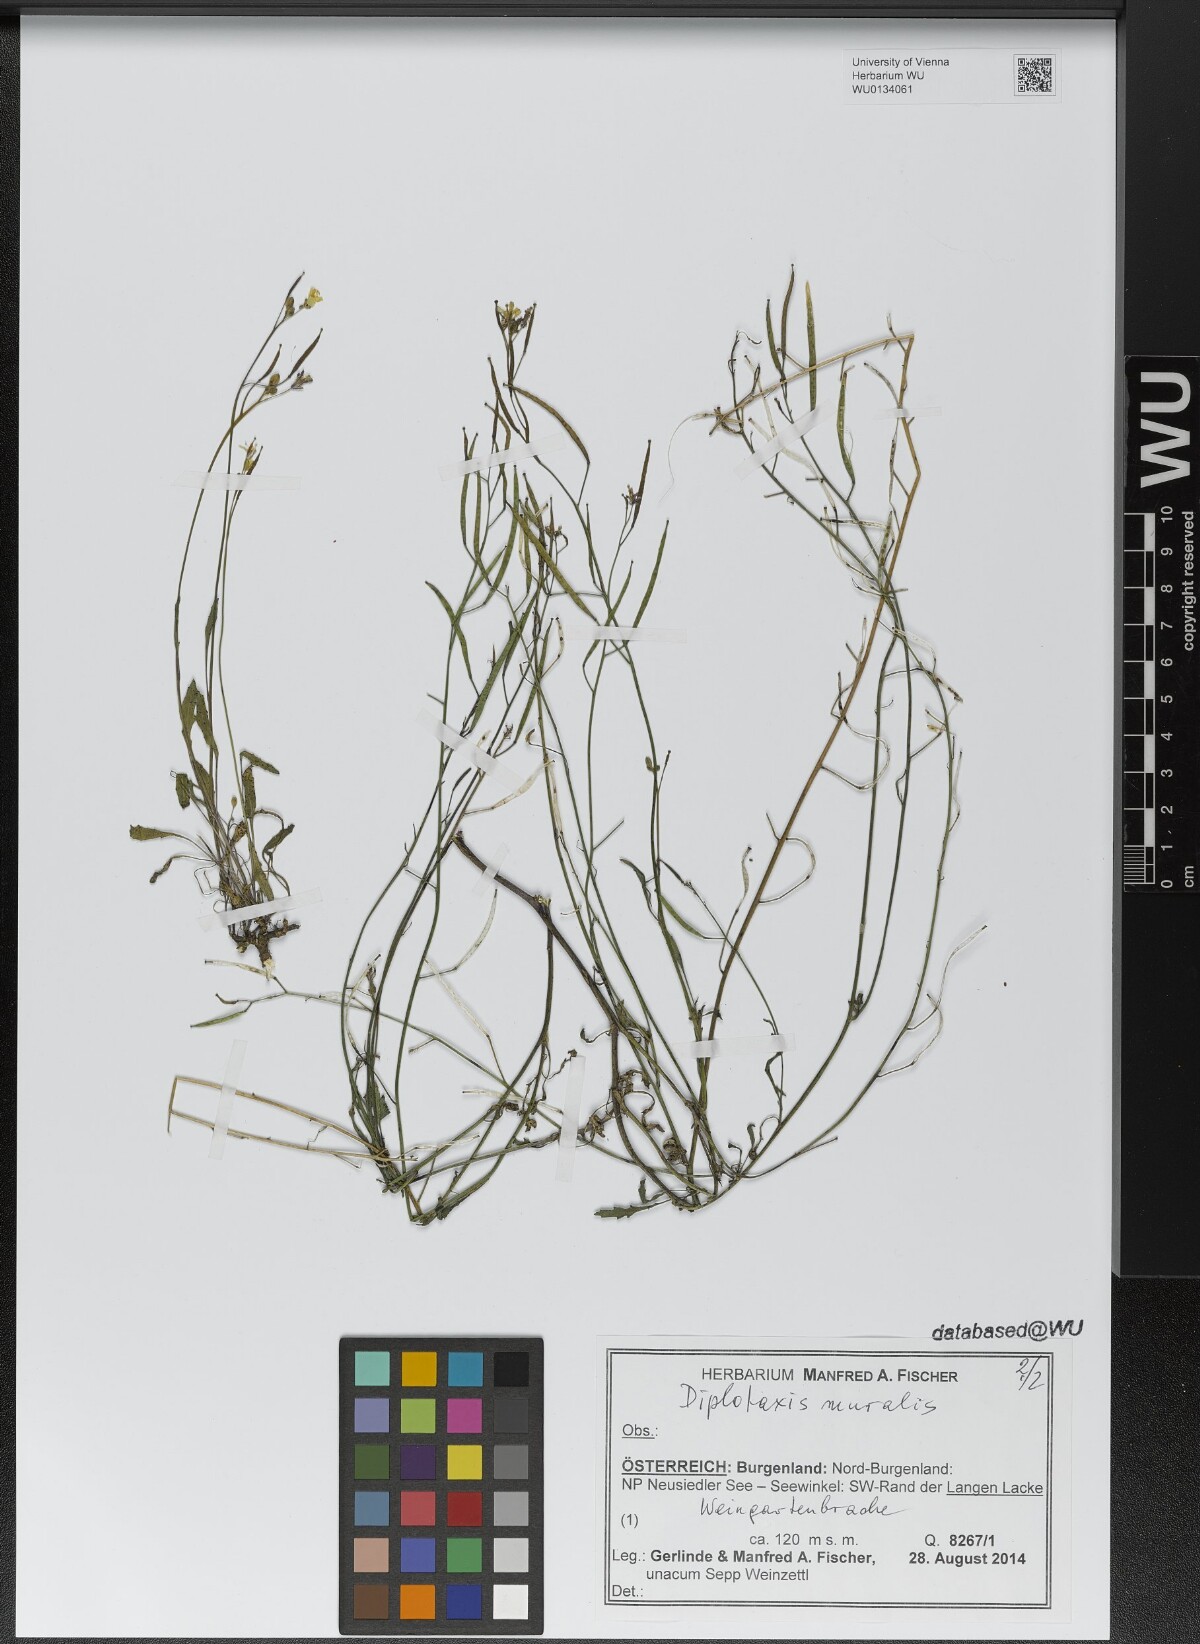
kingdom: Plantae
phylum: Tracheophyta
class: Magnoliopsida
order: Brassicales
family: Brassicaceae
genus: Diplotaxis
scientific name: Diplotaxis muralis
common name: Annual wall-rocket
